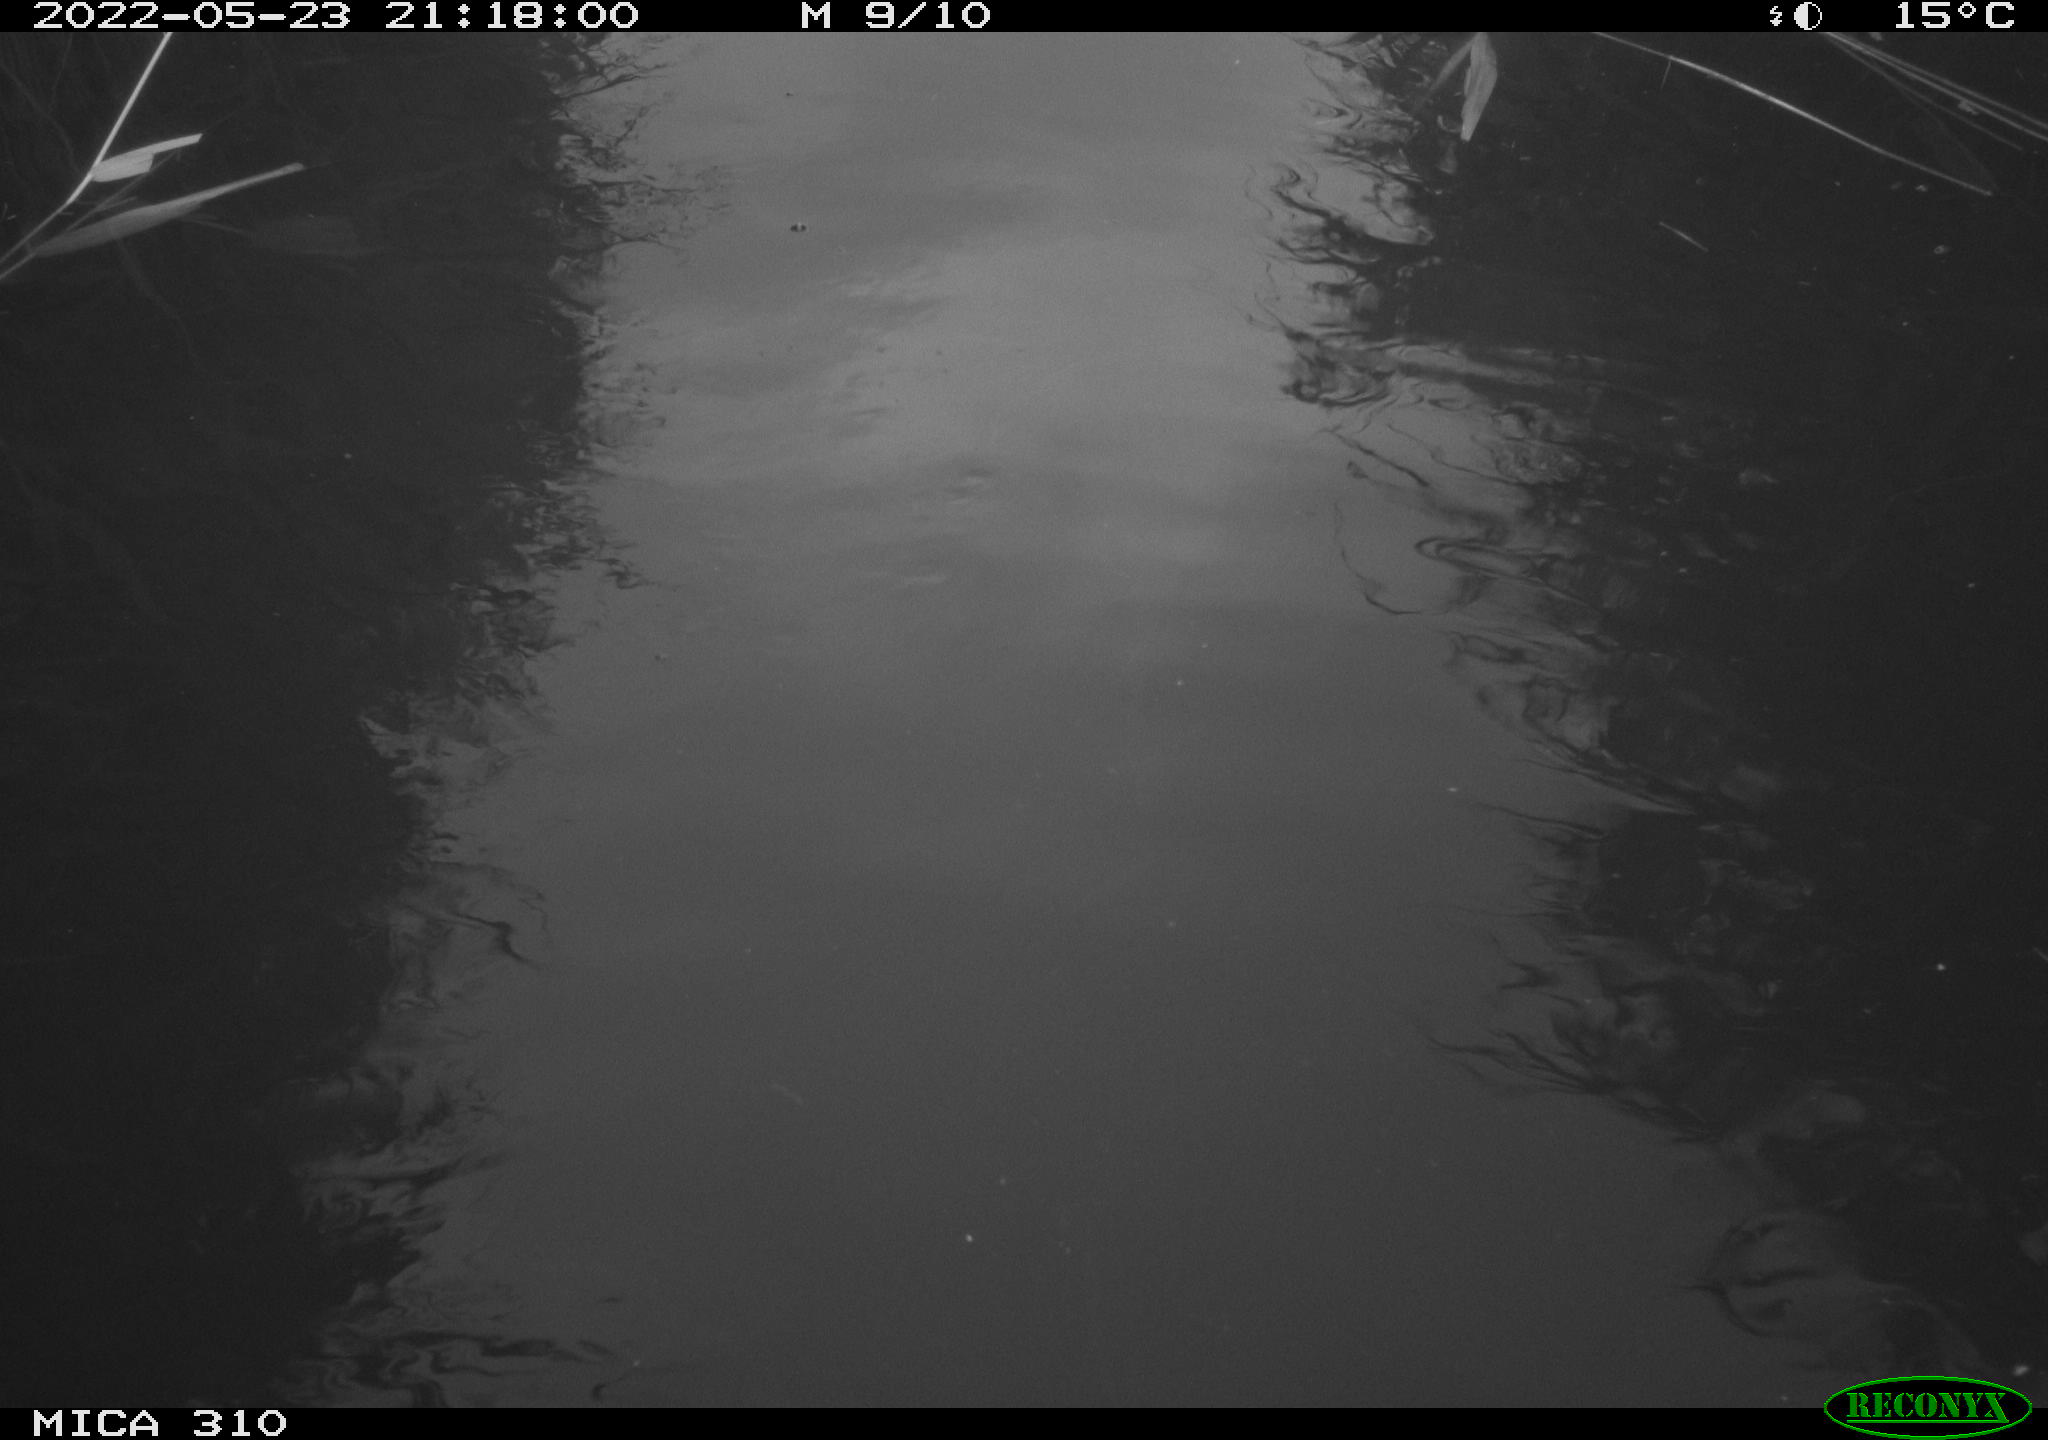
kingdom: Animalia
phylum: Chordata
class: Aves
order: Anseriformes
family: Anatidae
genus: Anas
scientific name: Anas platyrhynchos
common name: Mallard
